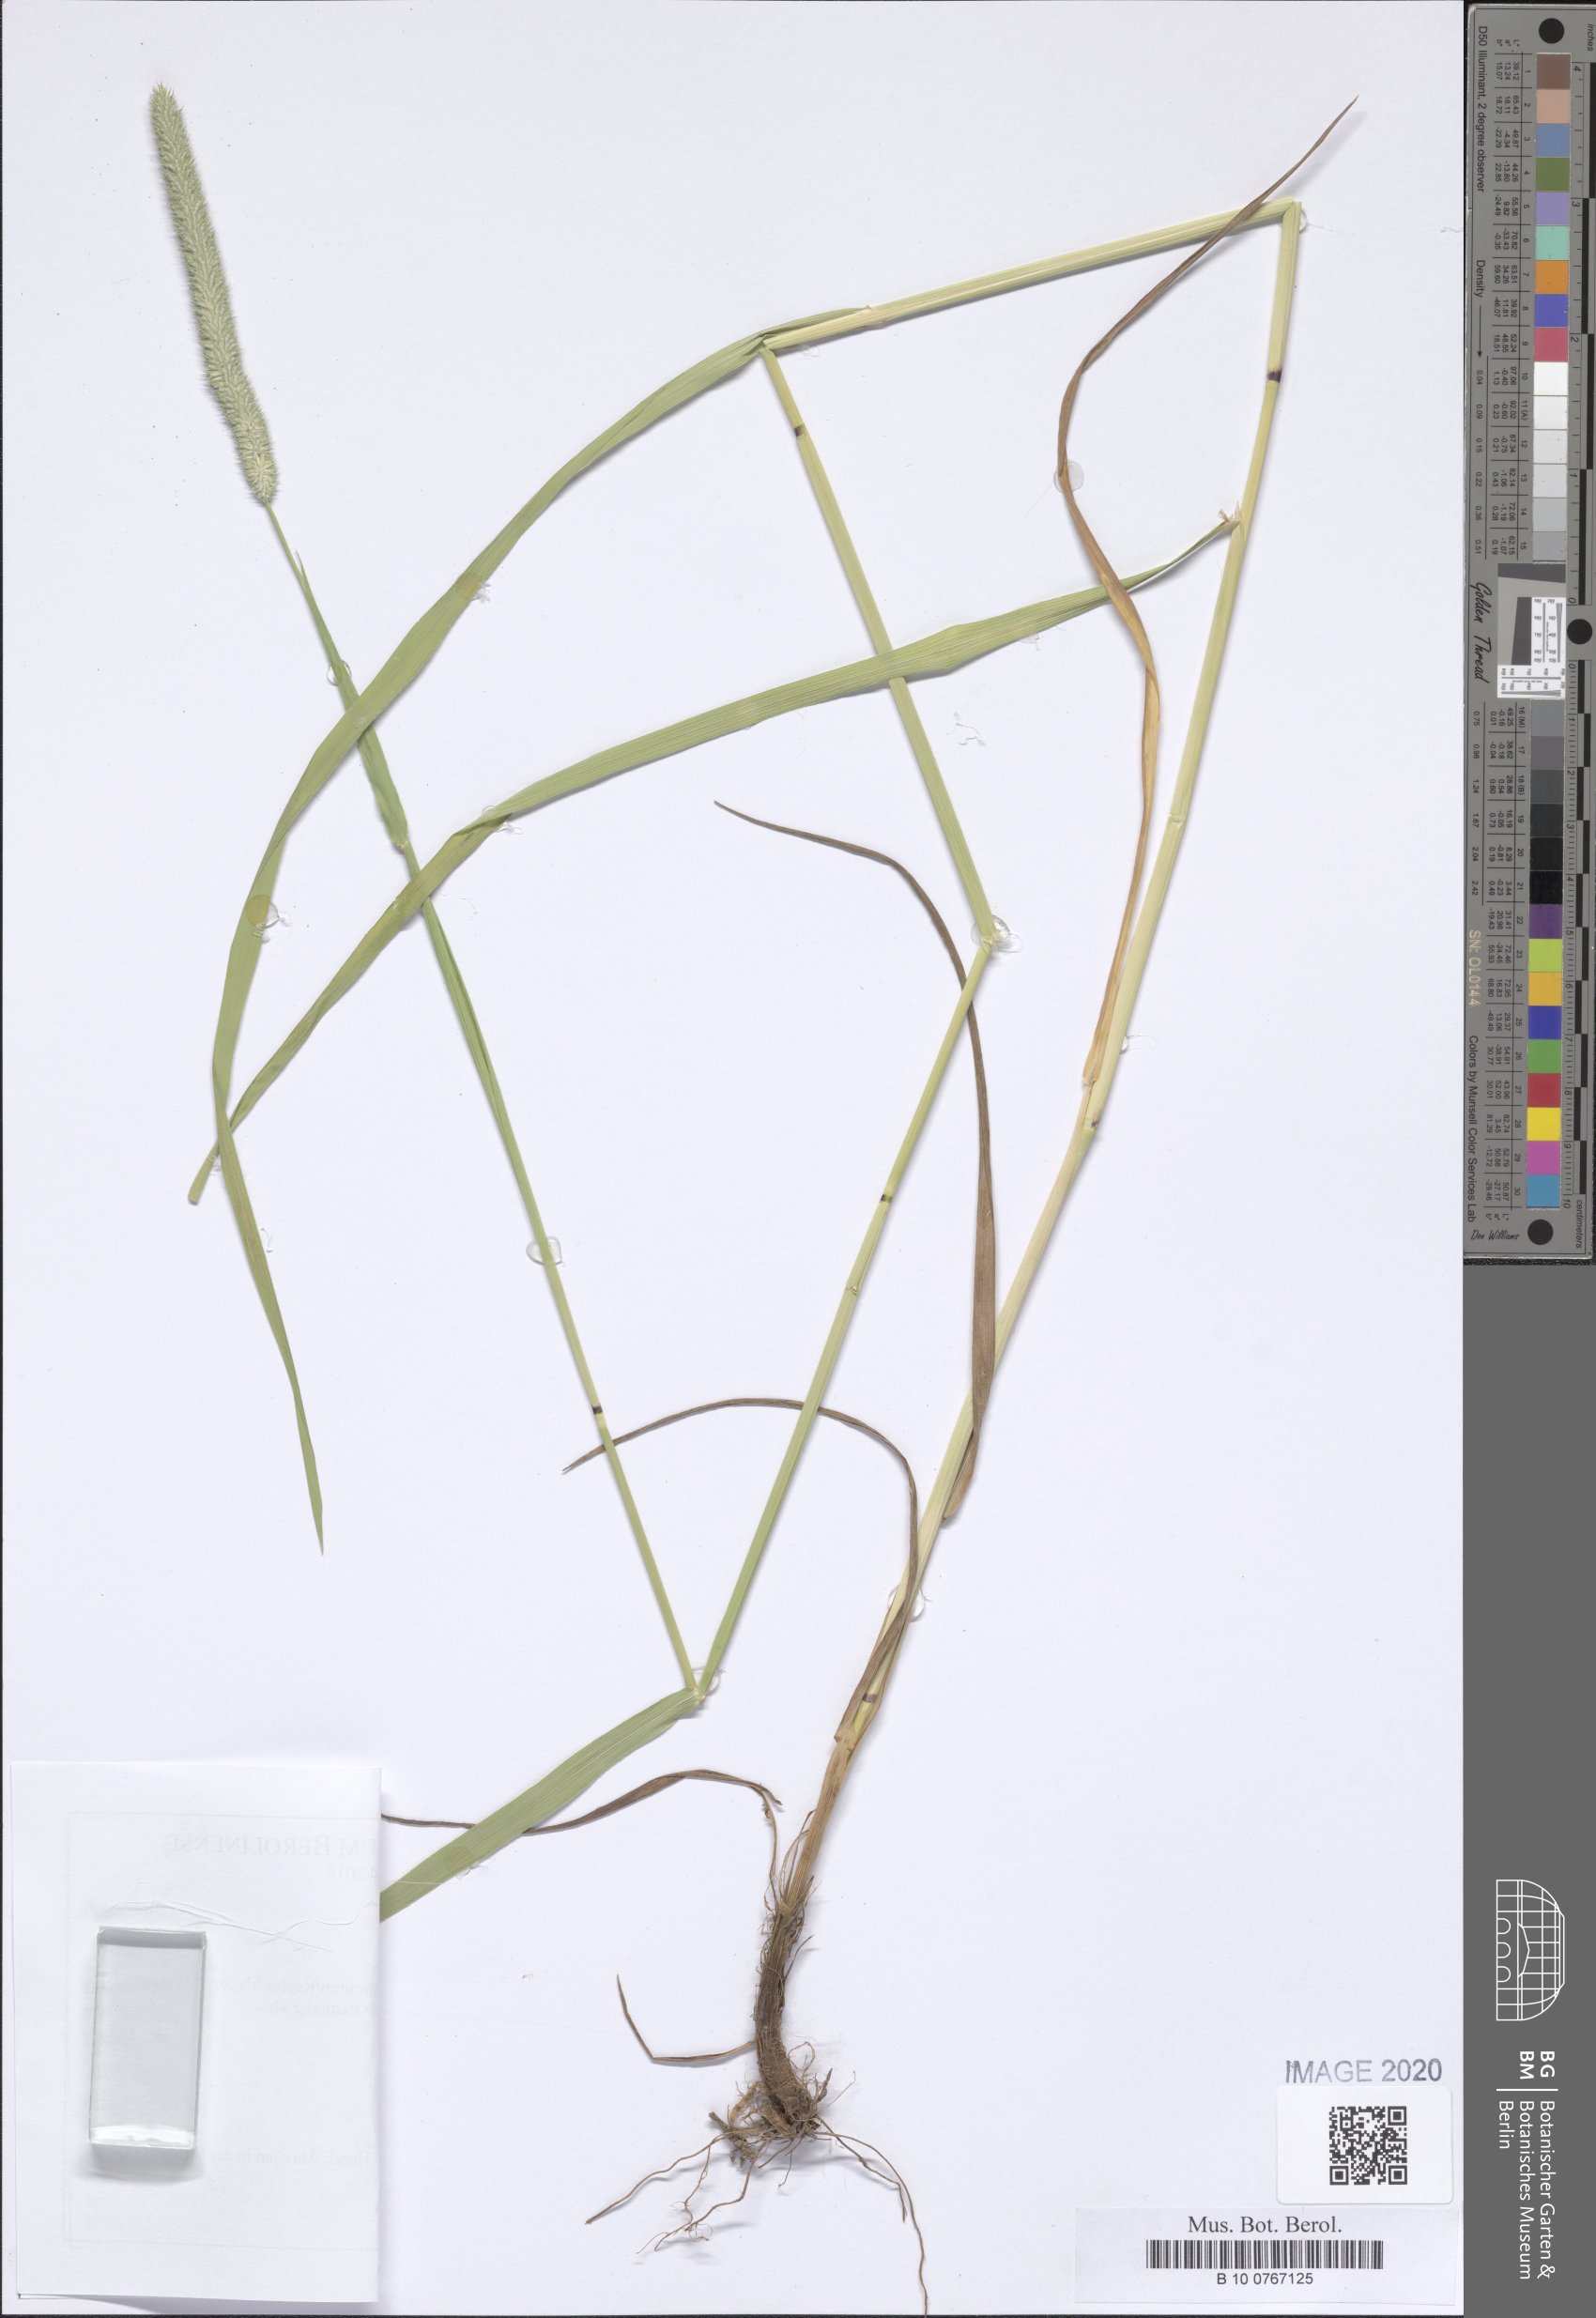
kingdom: Plantae
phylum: Tracheophyta
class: Liliopsida
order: Poales
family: Poaceae
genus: Phleum
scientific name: Phleum pratense
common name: Timothy grass
